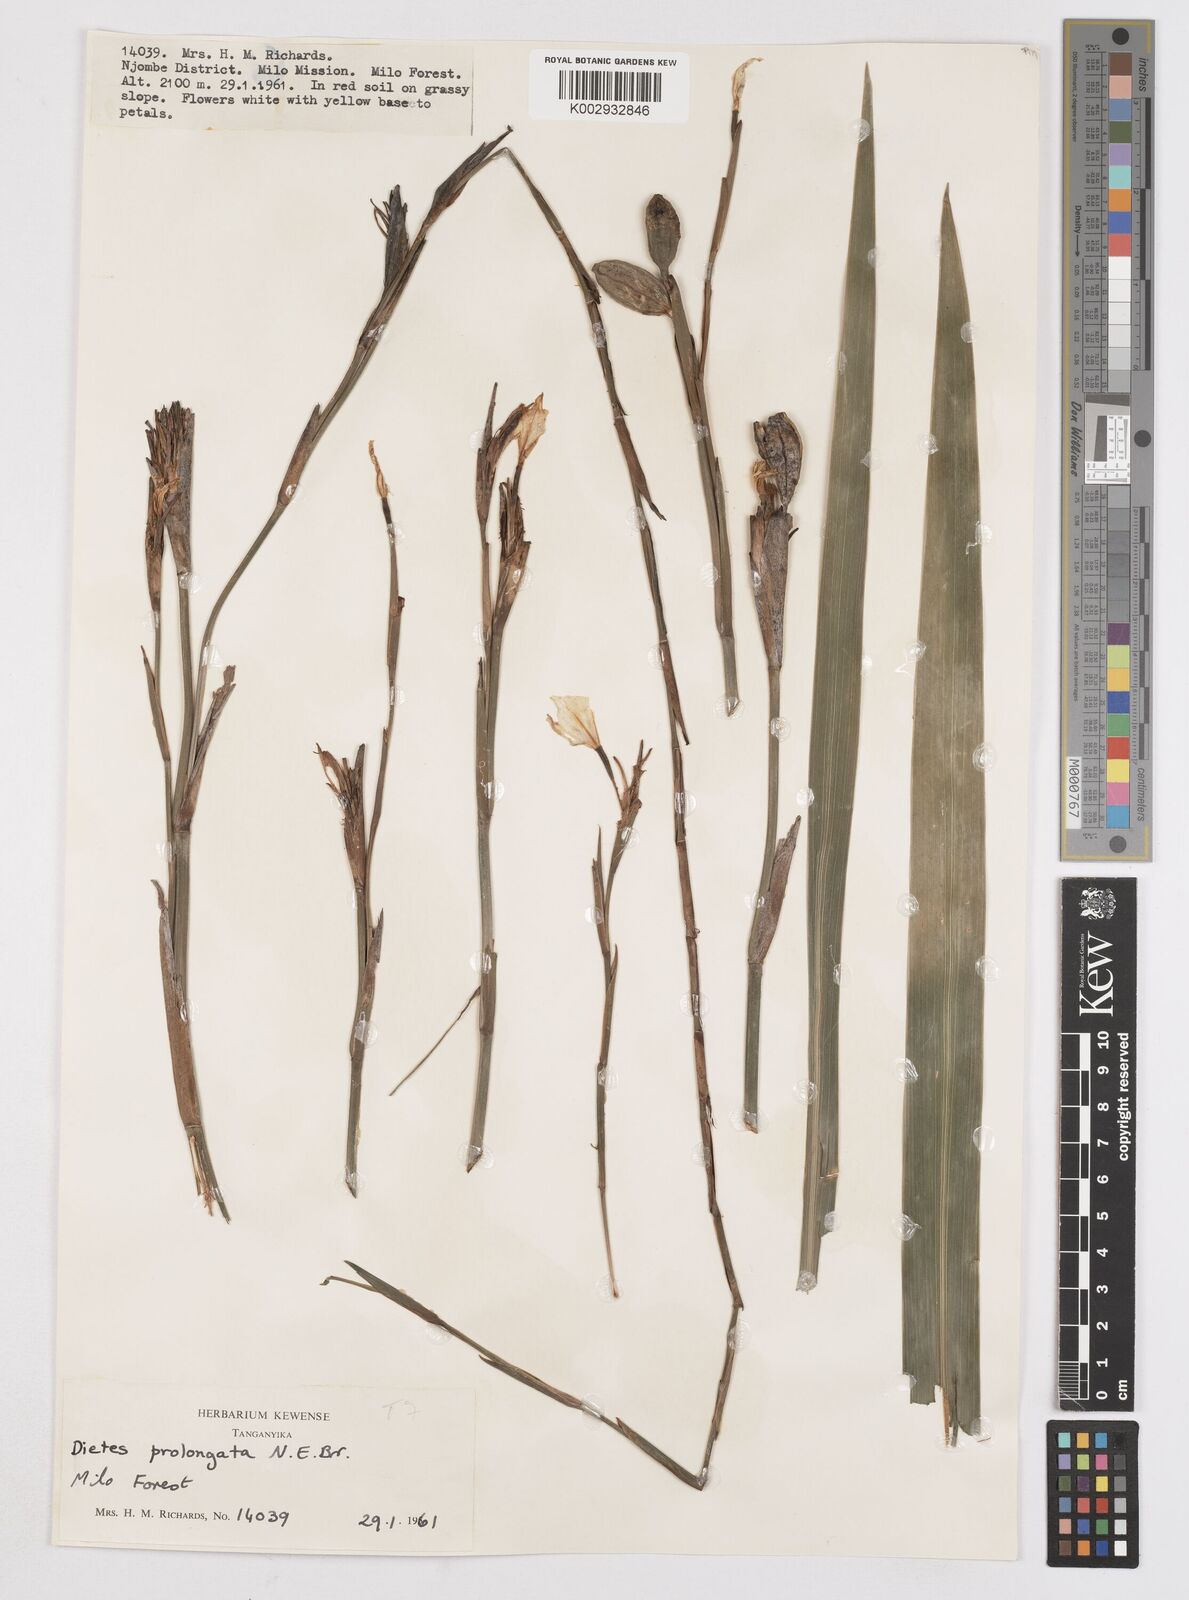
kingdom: Plantae
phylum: Tracheophyta
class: Liliopsida
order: Asparagales
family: Iridaceae
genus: Dietes
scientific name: Dietes iridioides
